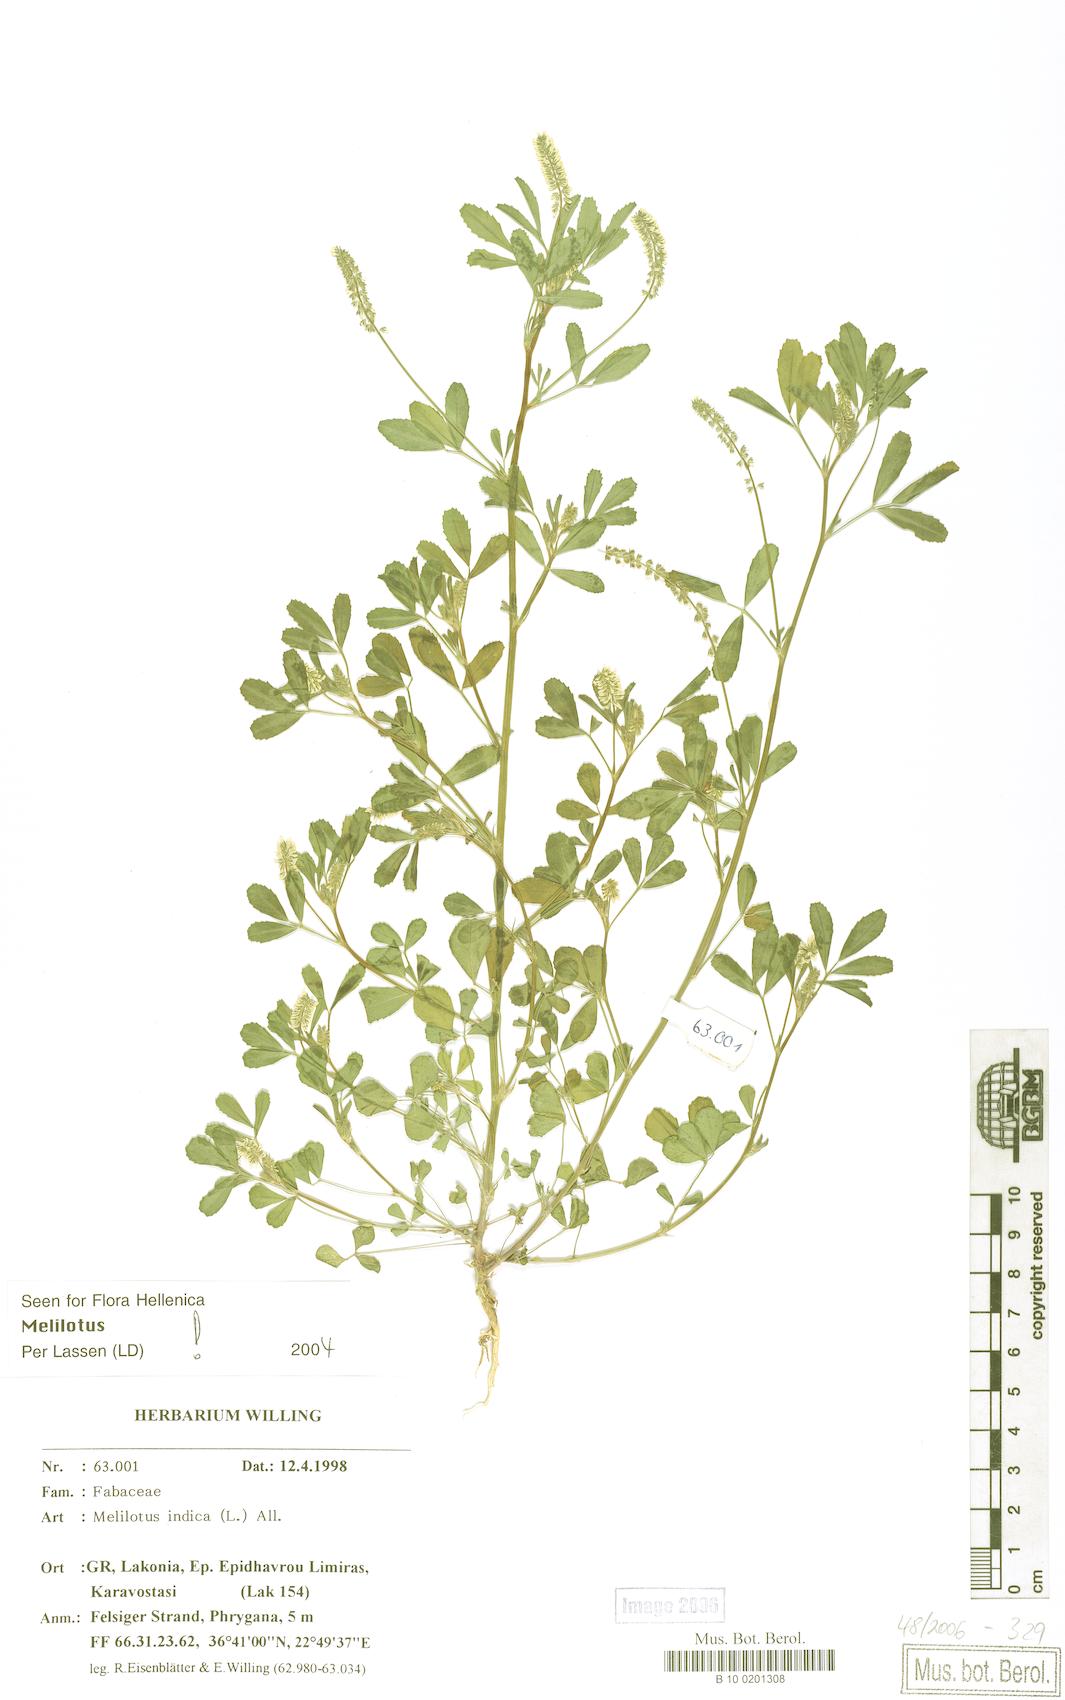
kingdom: Plantae
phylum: Tracheophyta
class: Magnoliopsida
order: Fabales
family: Fabaceae
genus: Melilotus
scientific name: Melilotus indicus
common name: Small melilot
